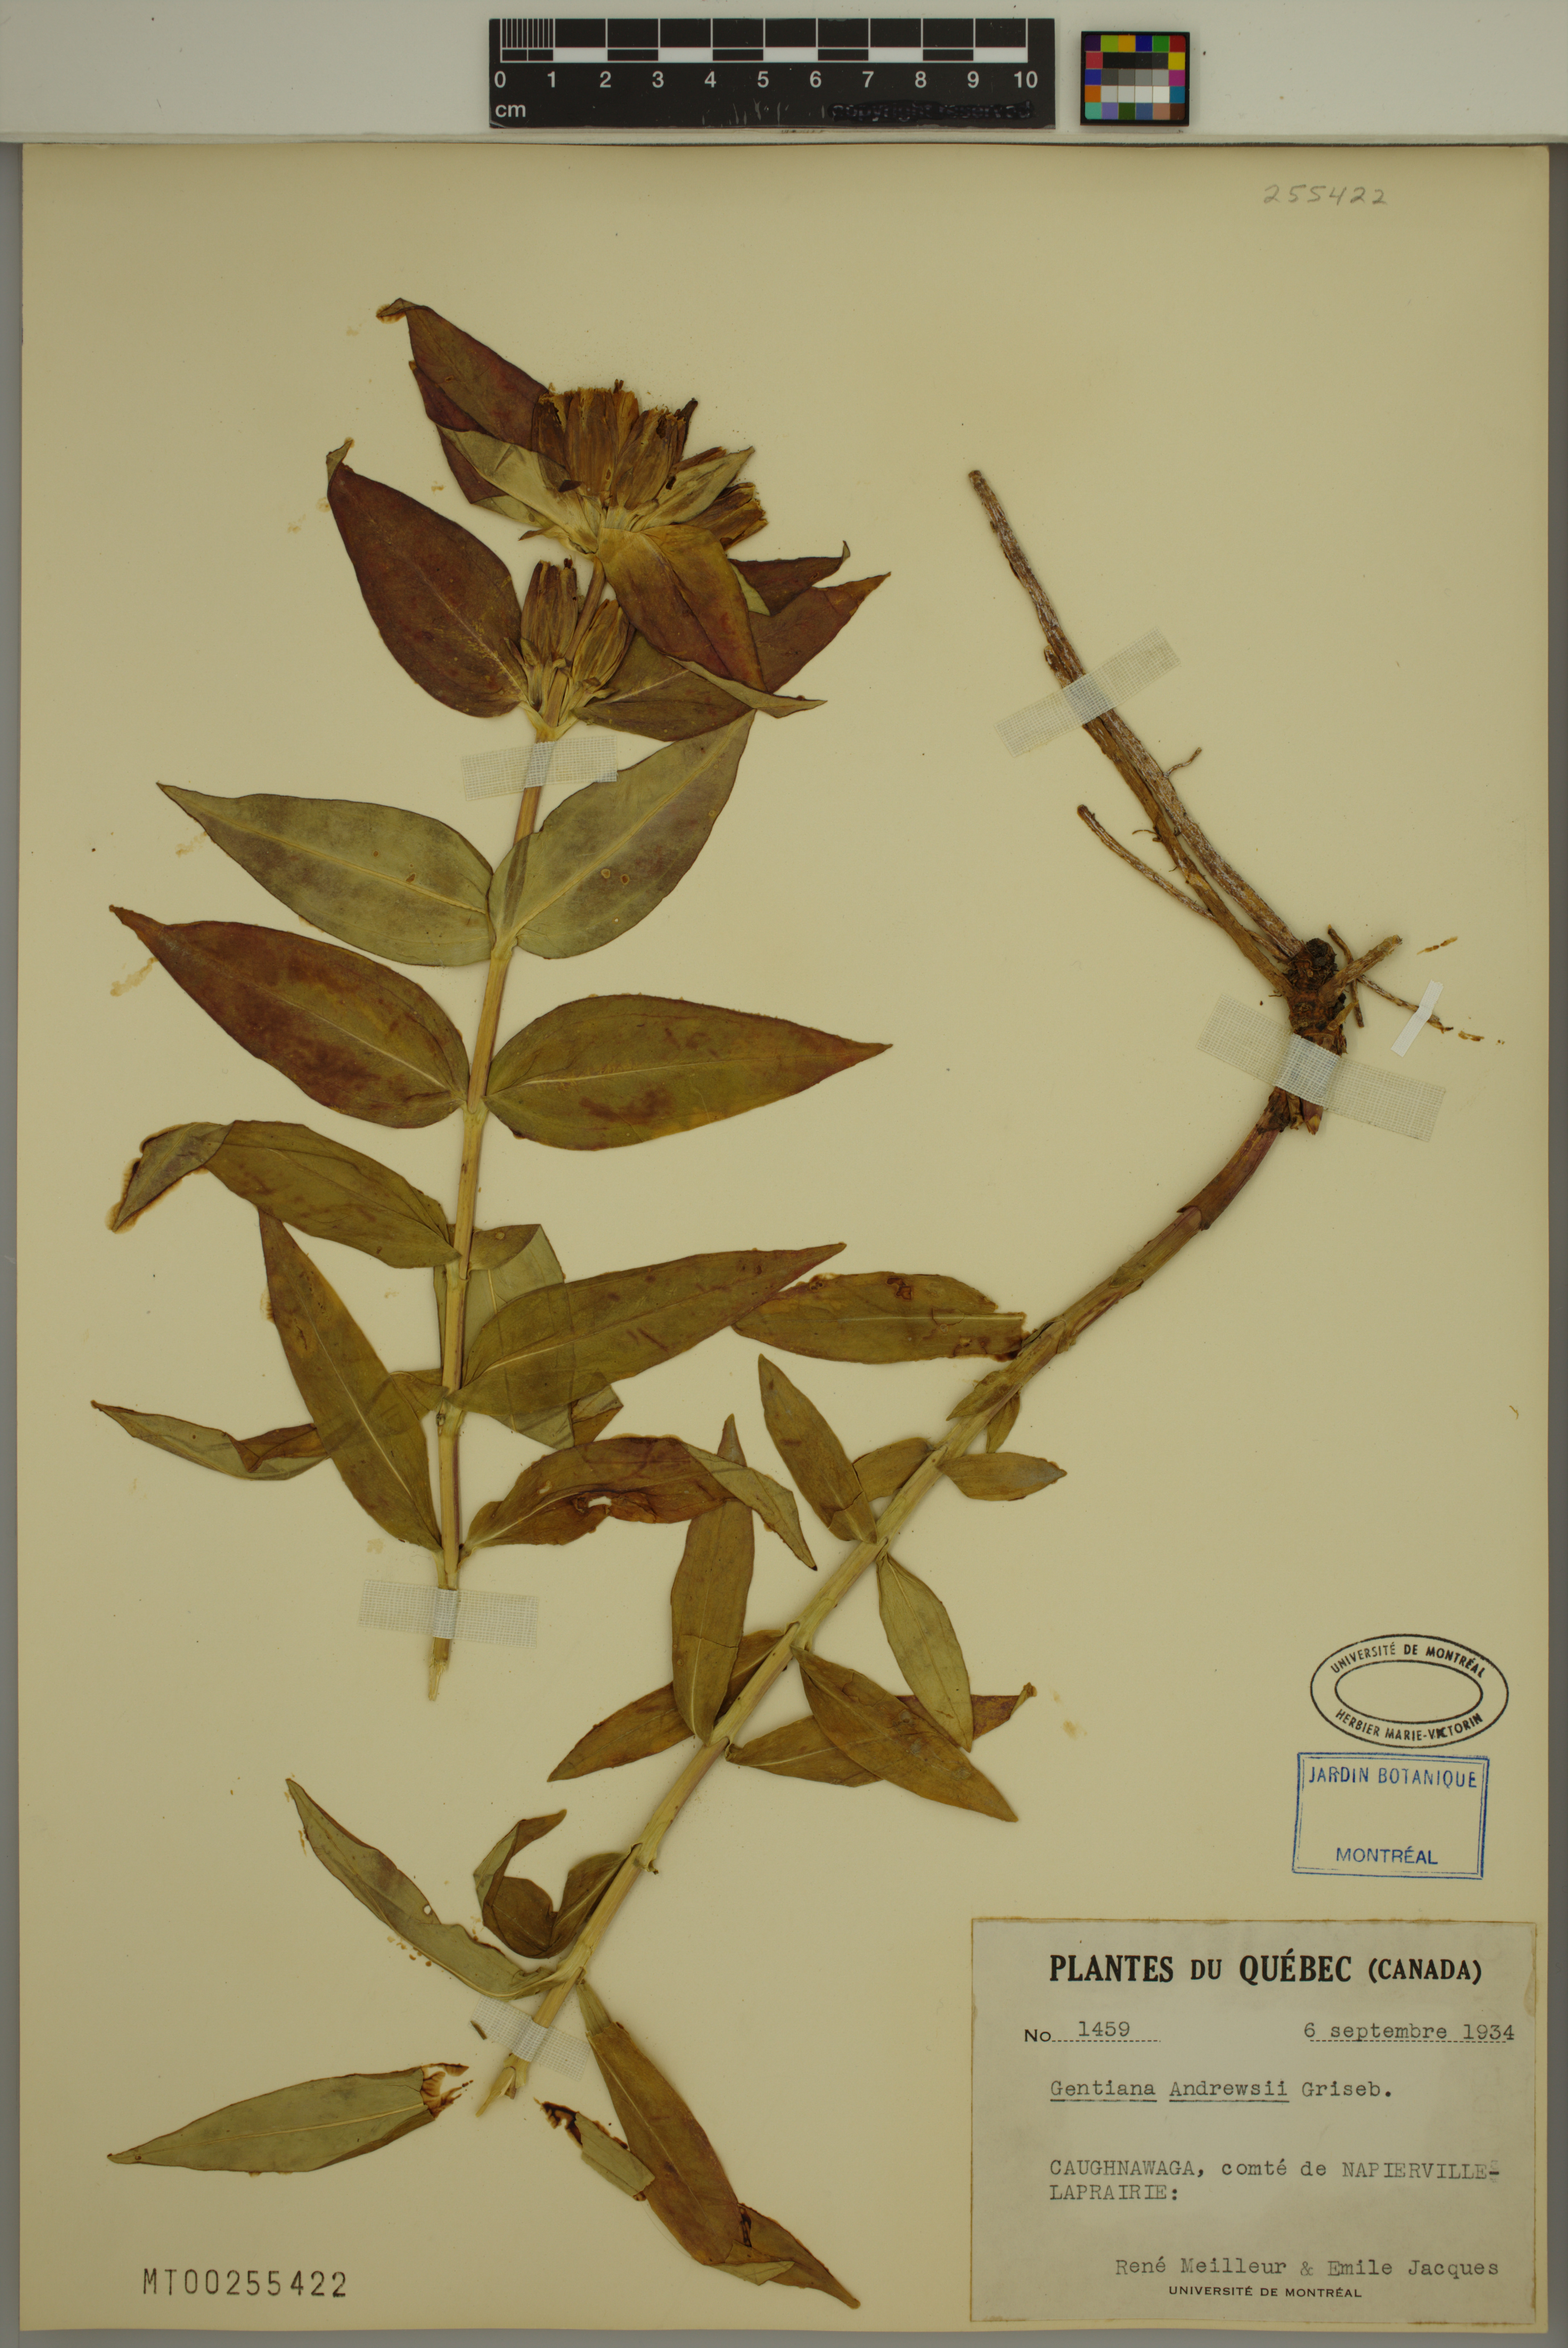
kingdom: Plantae
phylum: Tracheophyta
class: Magnoliopsida
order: Gentianales
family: Gentianaceae
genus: Gentiana
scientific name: Gentiana andrewsii
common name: Bottle gentian
